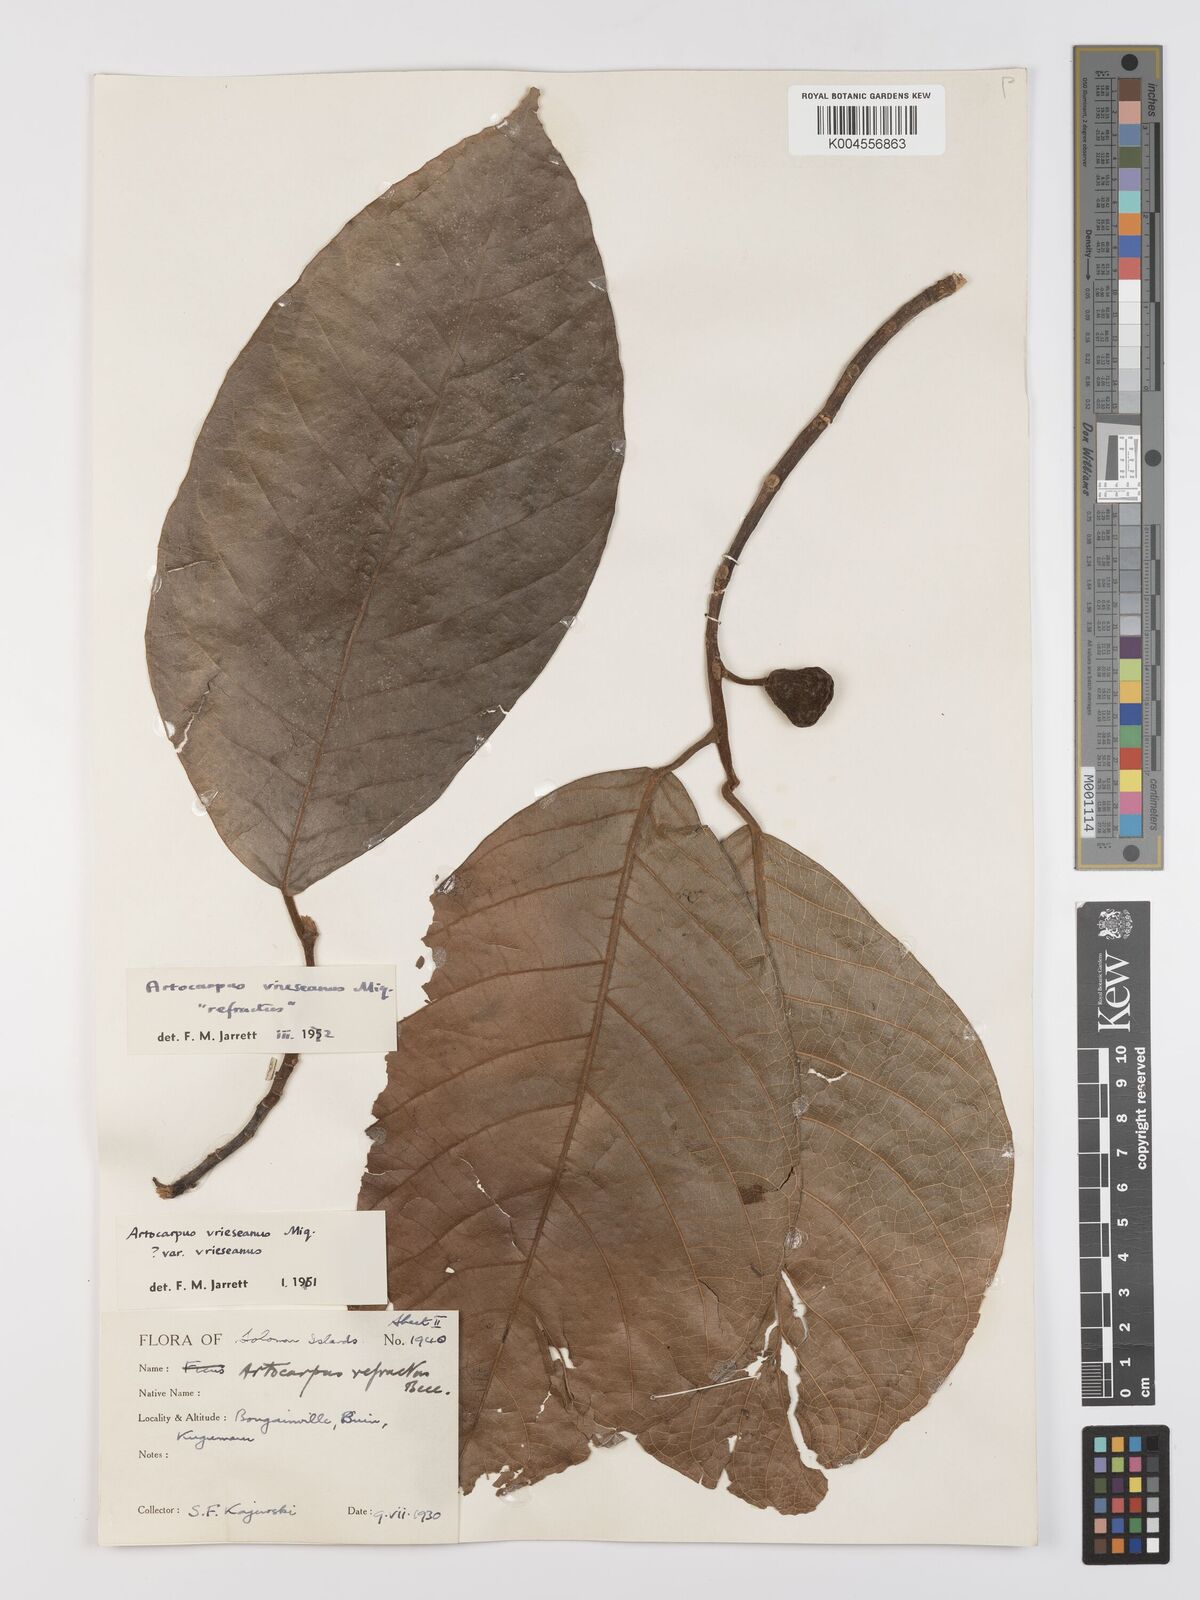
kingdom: Plantae
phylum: Tracheophyta
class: Magnoliopsida
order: Rosales
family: Moraceae
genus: Artocarpus
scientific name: Artocarpus vrieseanus
